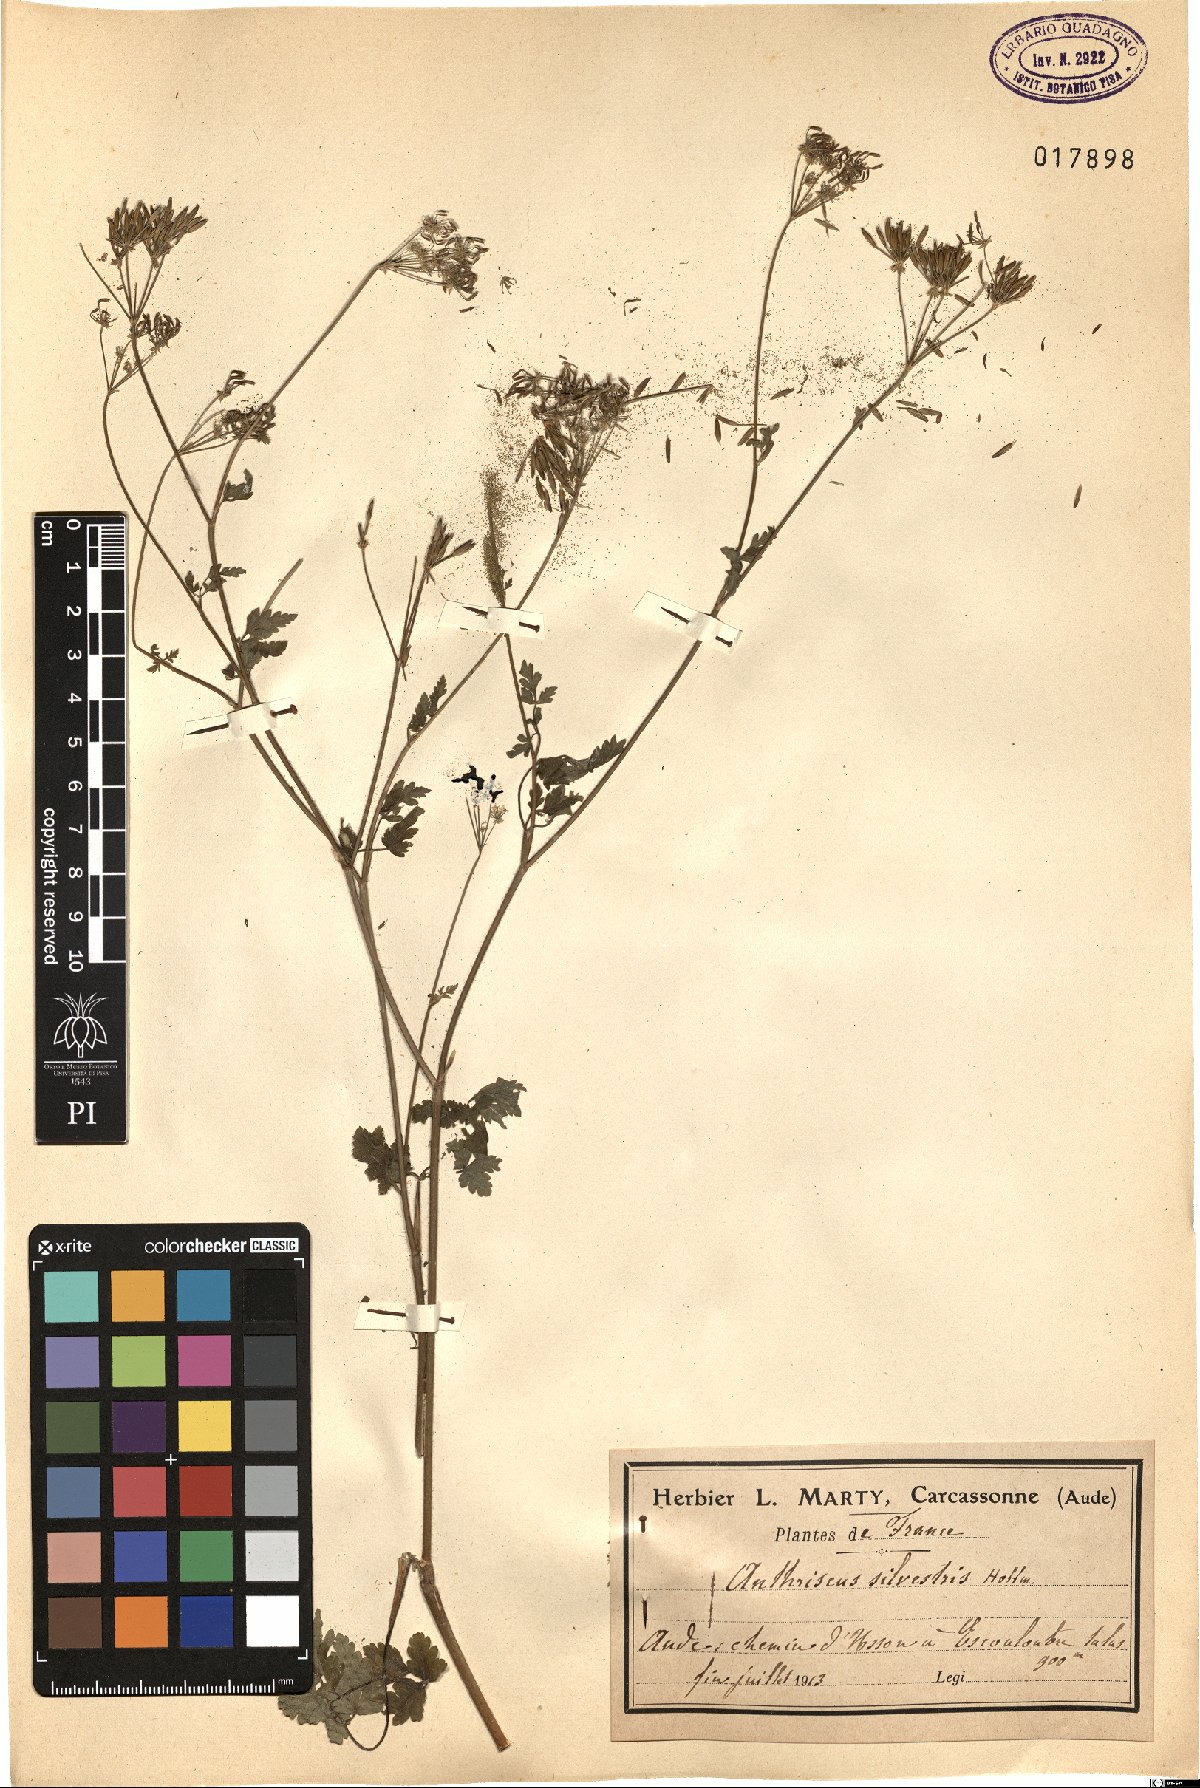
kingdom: Plantae
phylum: Tracheophyta
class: Magnoliopsida
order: Apiales
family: Apiaceae
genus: Anthriscus
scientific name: Anthriscus sylvestris
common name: Cow parsley
